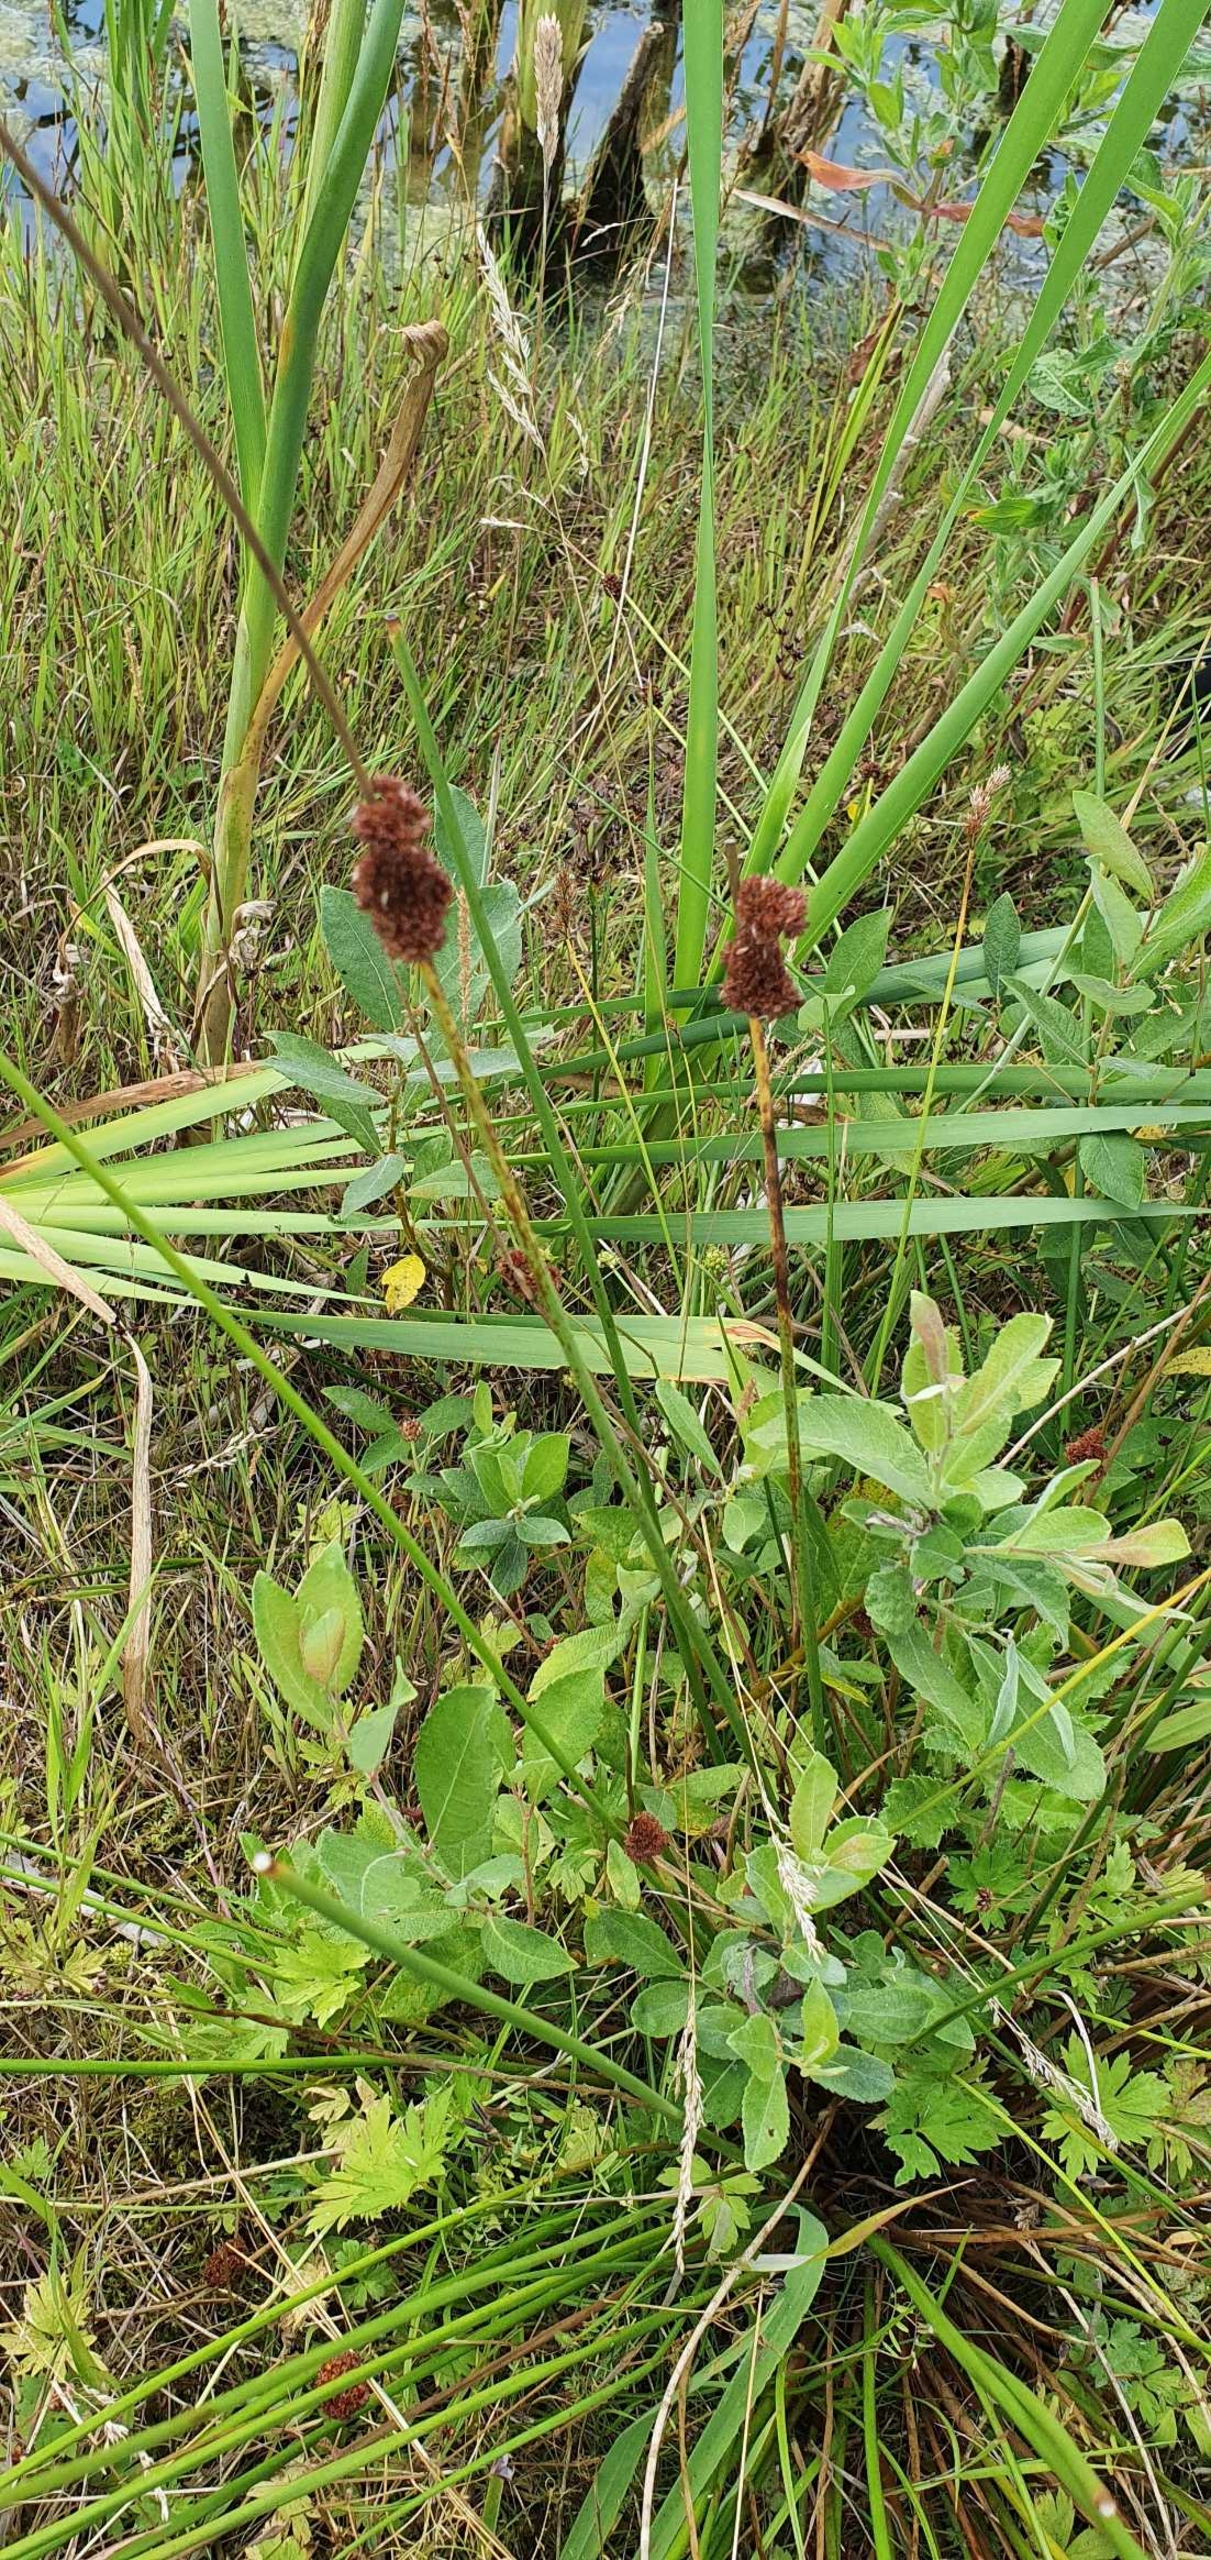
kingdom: Plantae
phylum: Tracheophyta
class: Liliopsida
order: Poales
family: Juncaceae
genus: Juncus
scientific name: Juncus conglomeratus
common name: Knop-siv
